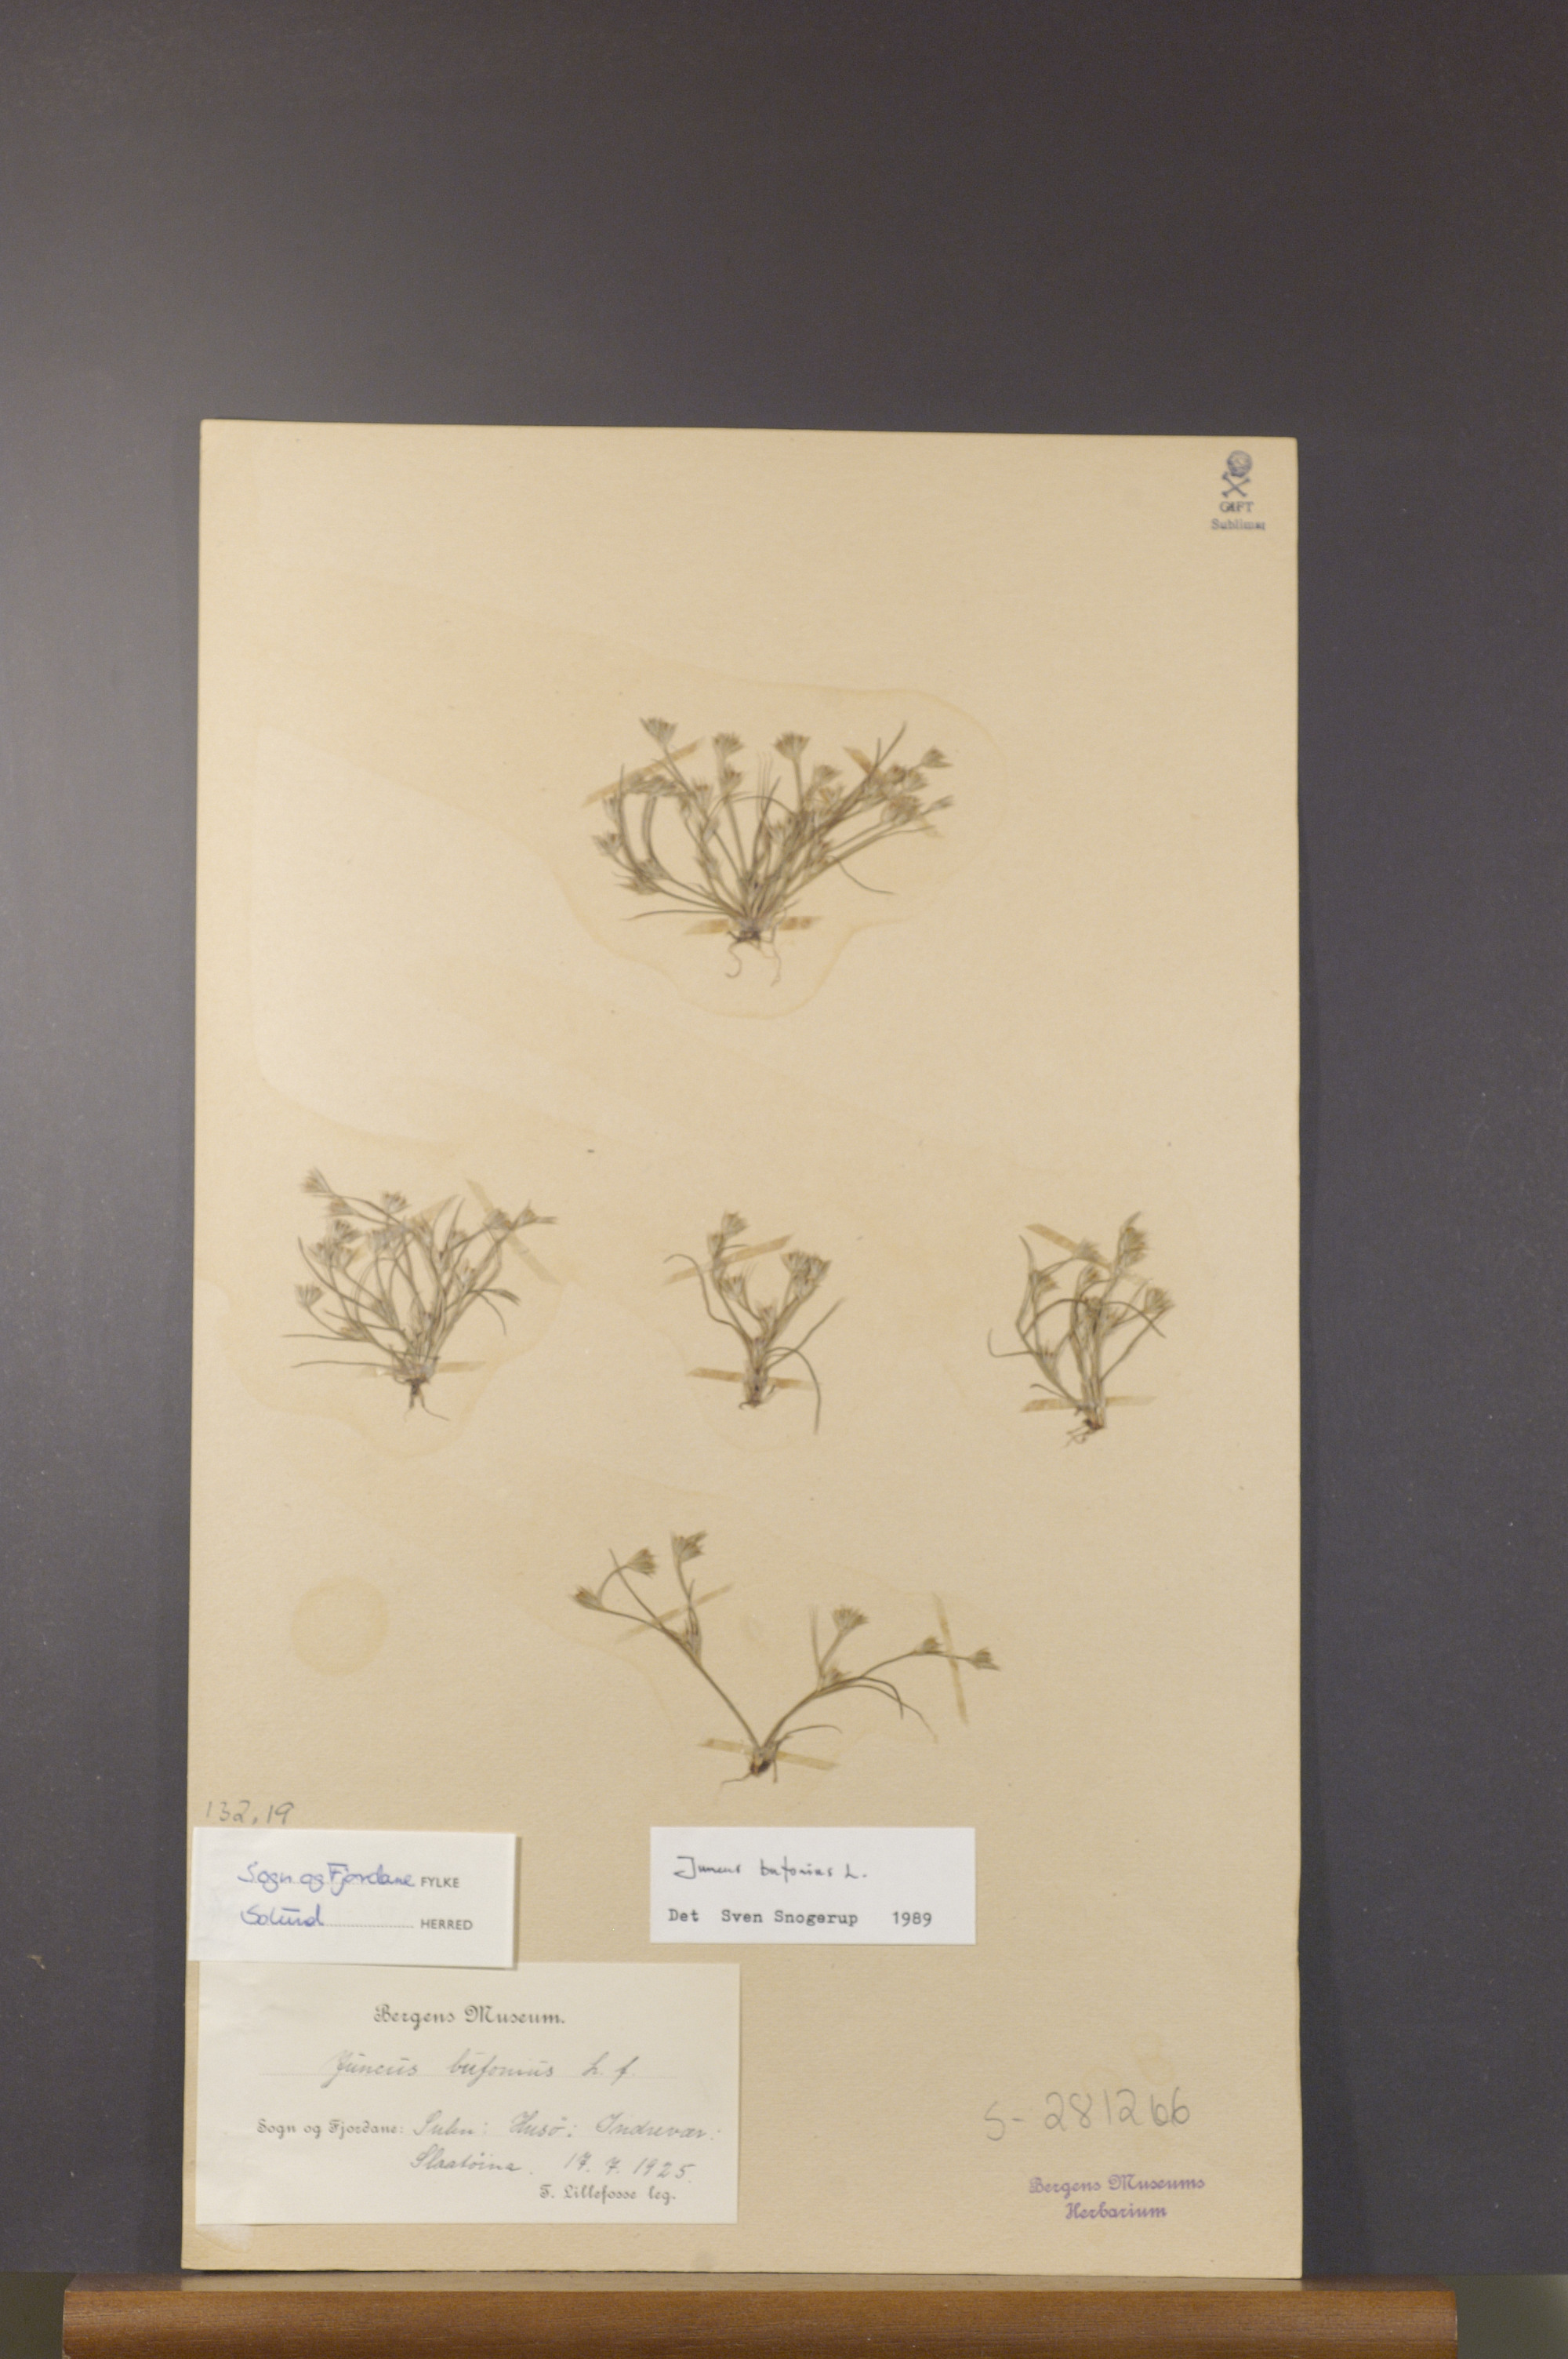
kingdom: Plantae
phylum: Tracheophyta
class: Liliopsida
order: Poales
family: Juncaceae
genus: Juncus
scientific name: Juncus bufonius
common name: Toad rush
